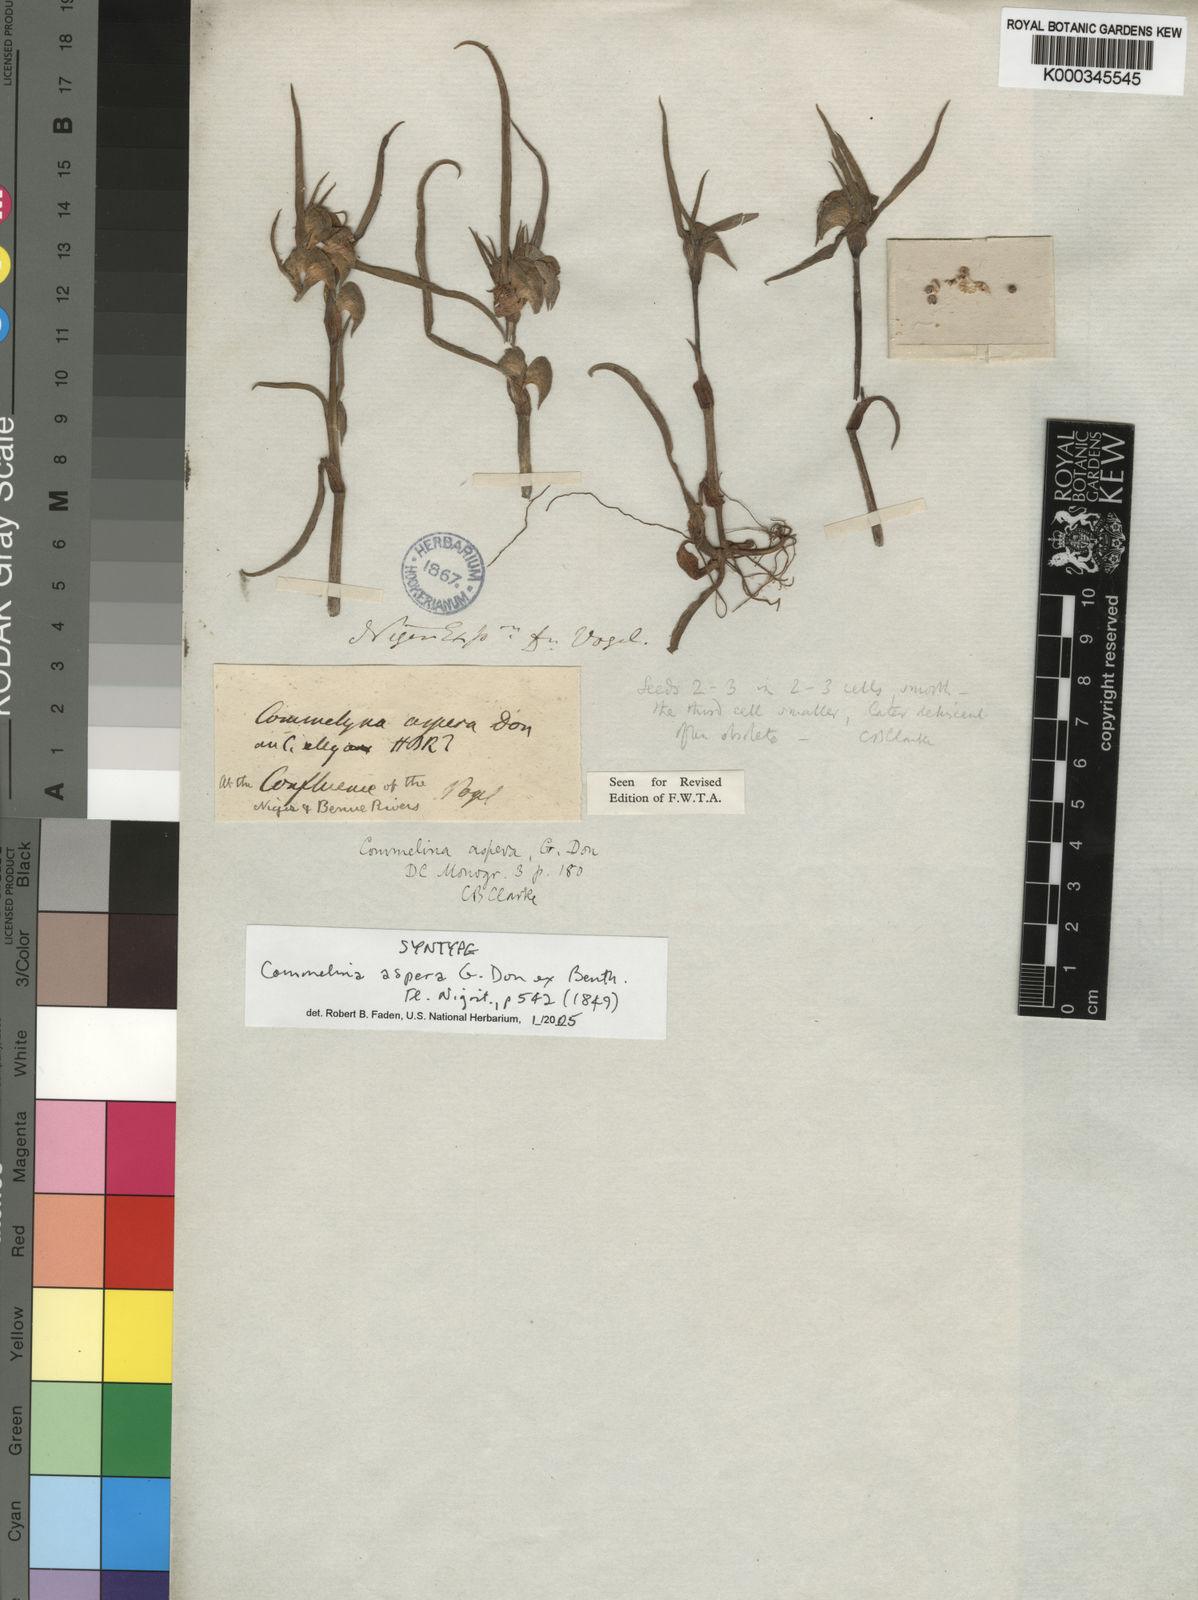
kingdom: Plantae
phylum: Tracheophyta
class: Liliopsida
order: Commelinales
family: Commelinaceae
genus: Commelina
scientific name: Commelina aspera
